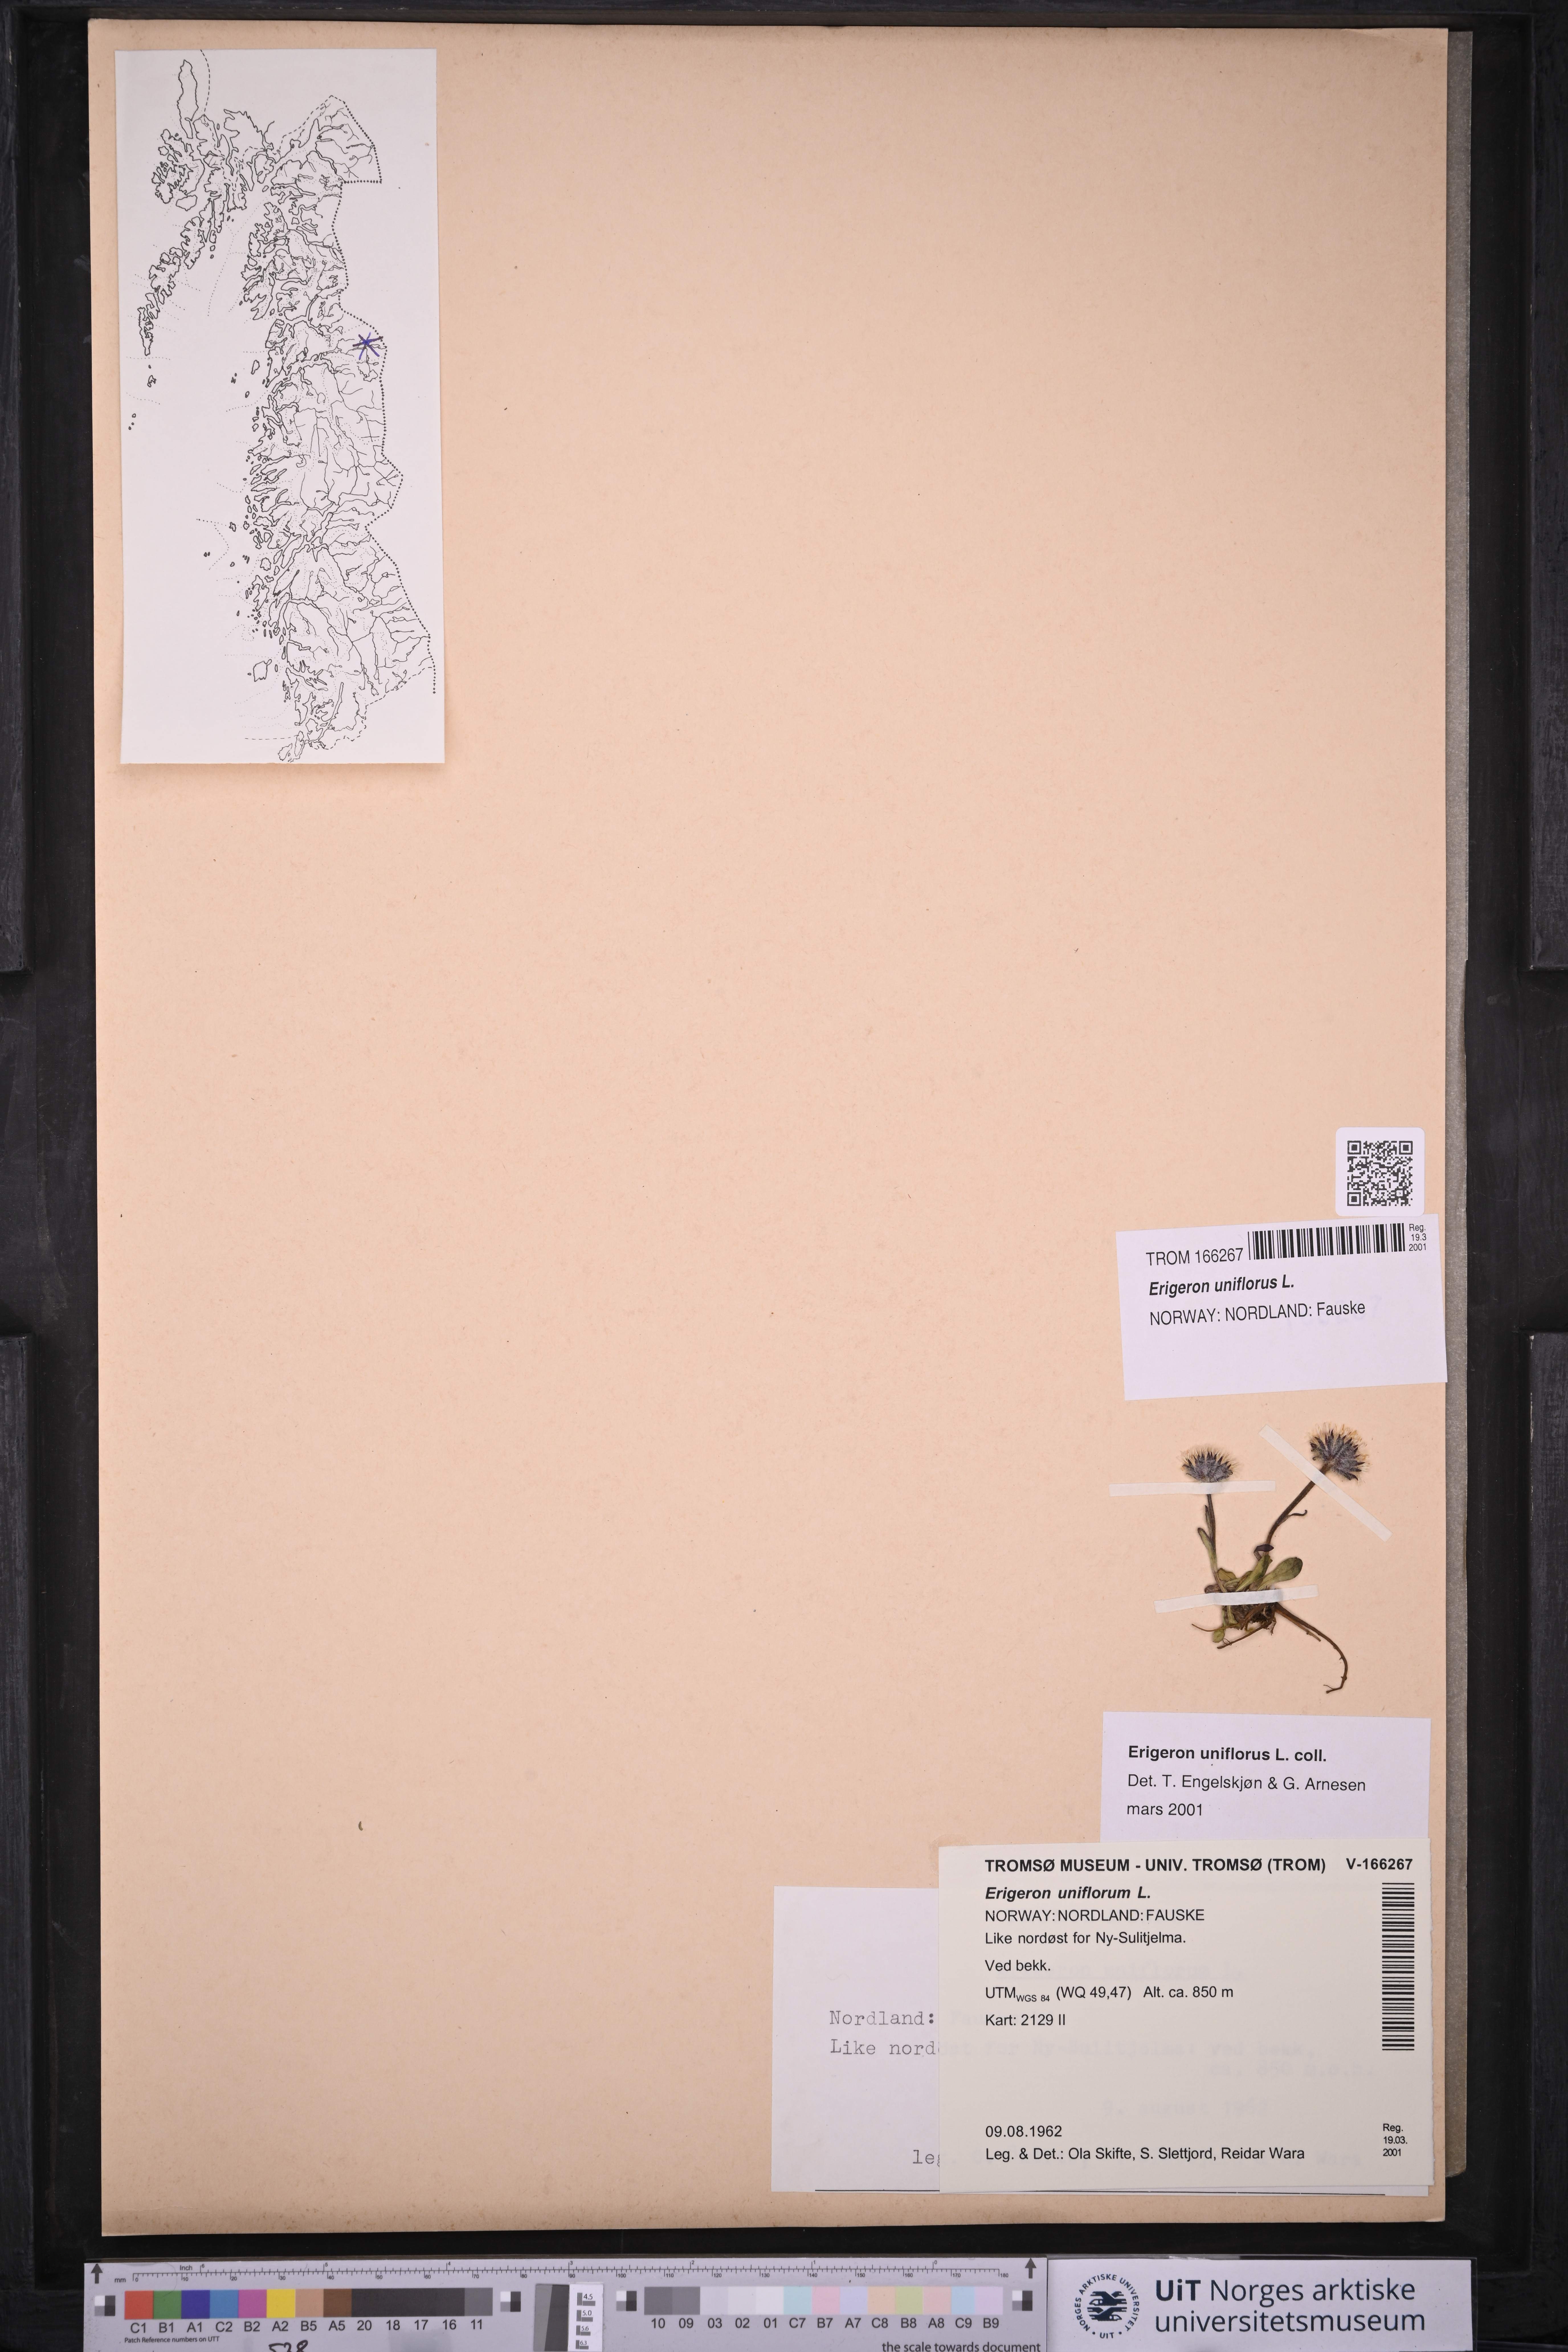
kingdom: Plantae
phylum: Tracheophyta
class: Magnoliopsida
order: Asterales
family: Asteraceae
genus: Erigeron
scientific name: Erigeron uniflorus
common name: Northern daisy
